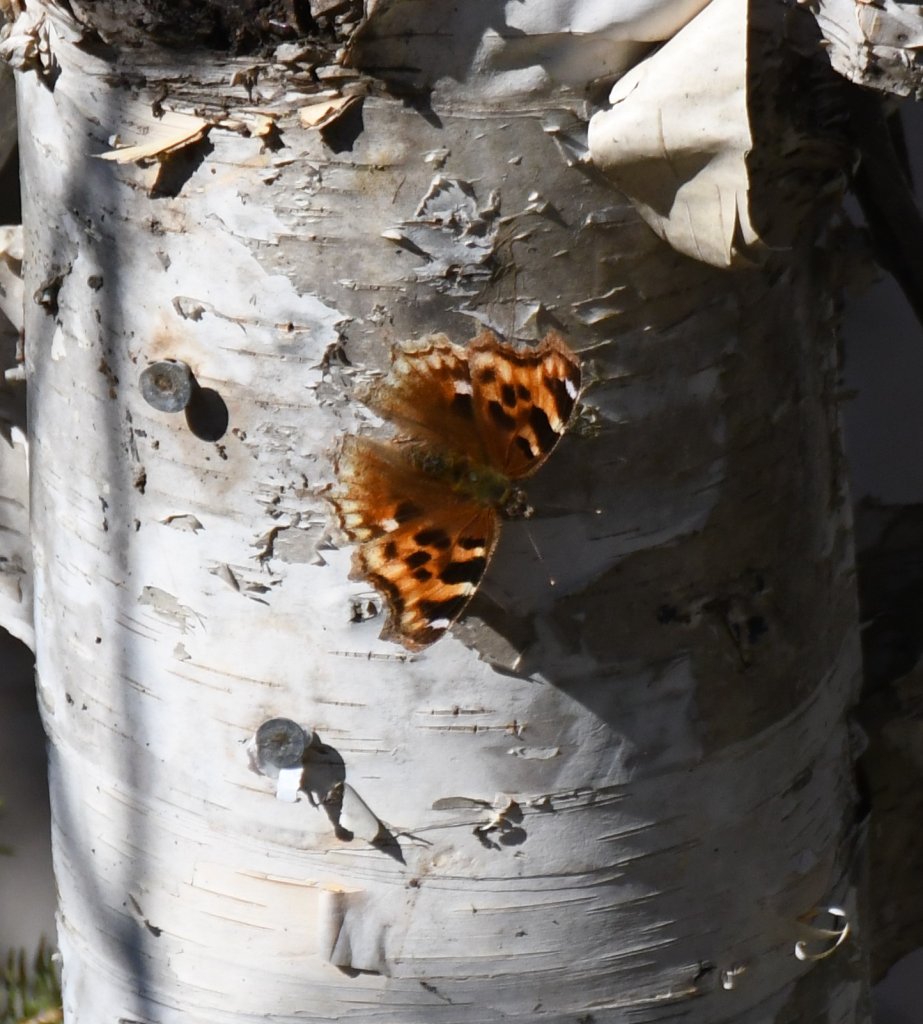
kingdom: Animalia
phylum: Arthropoda
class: Insecta
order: Lepidoptera
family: Nymphalidae
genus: Polygonia
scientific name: Polygonia vaualbum
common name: Compton Tortoiseshell
